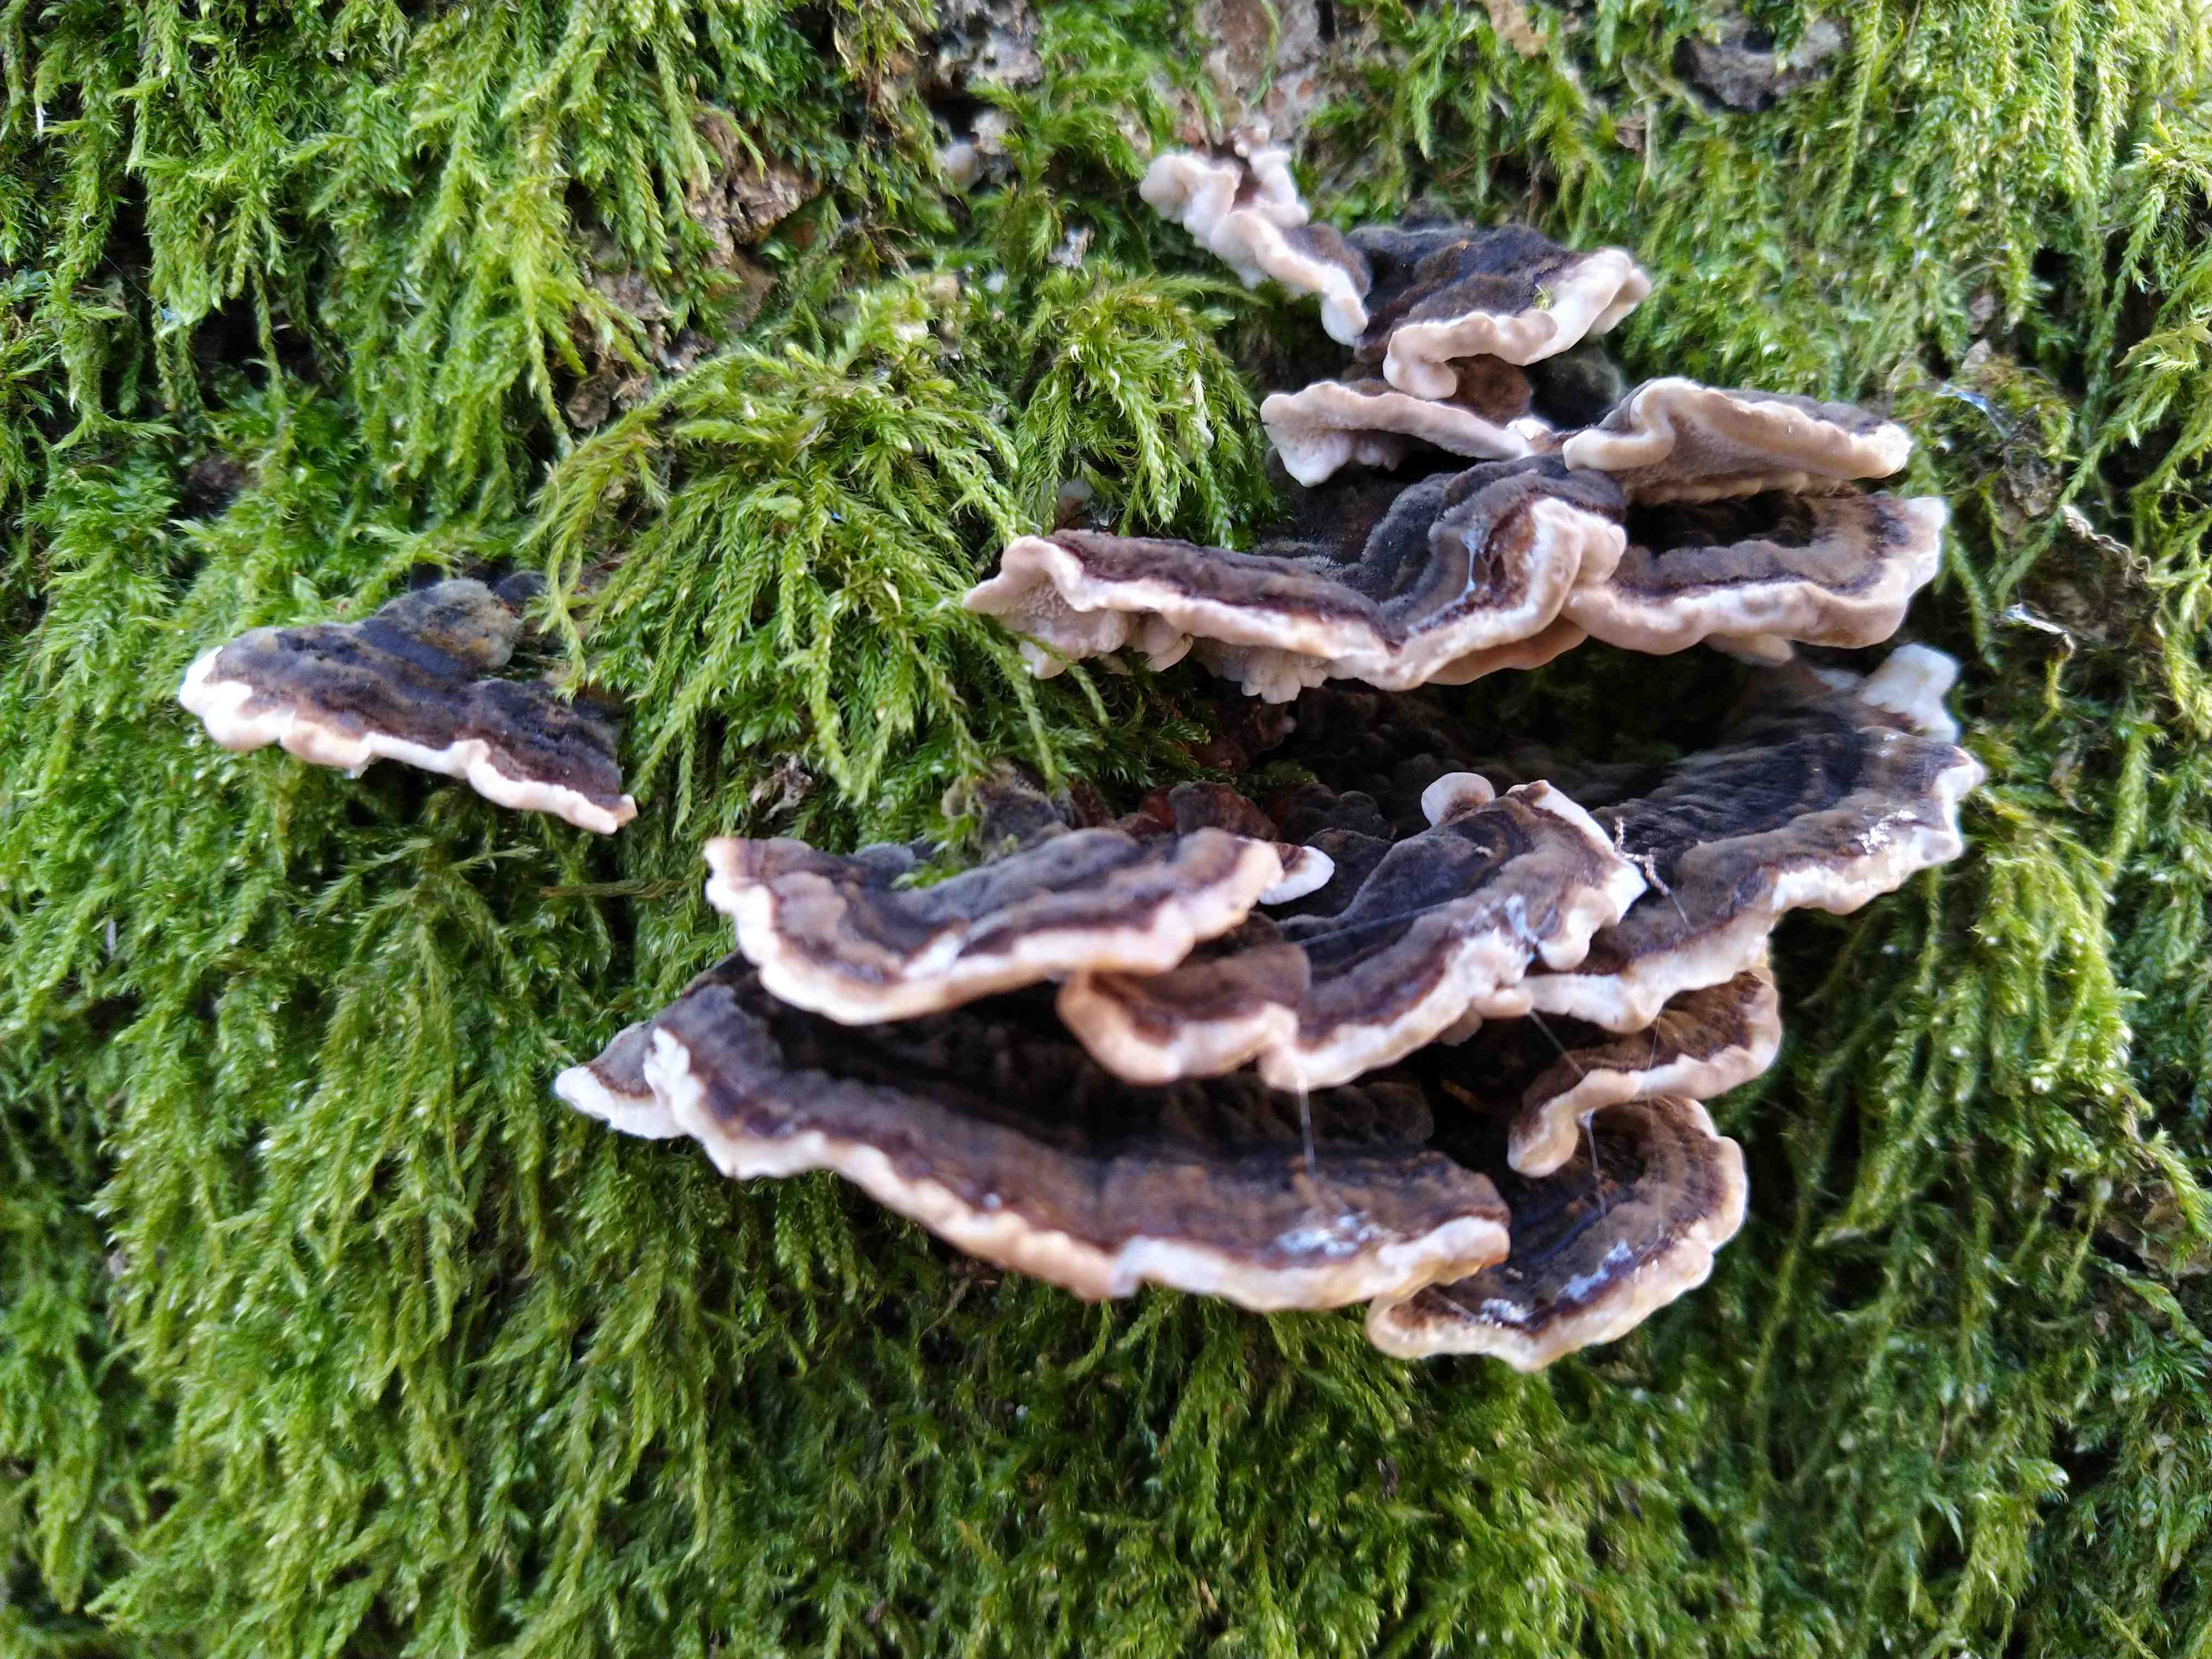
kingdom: Fungi
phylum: Basidiomycota
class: Agaricomycetes
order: Polyporales
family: Polyporaceae
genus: Trametes
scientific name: Trametes versicolor
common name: broget læderporesvamp
